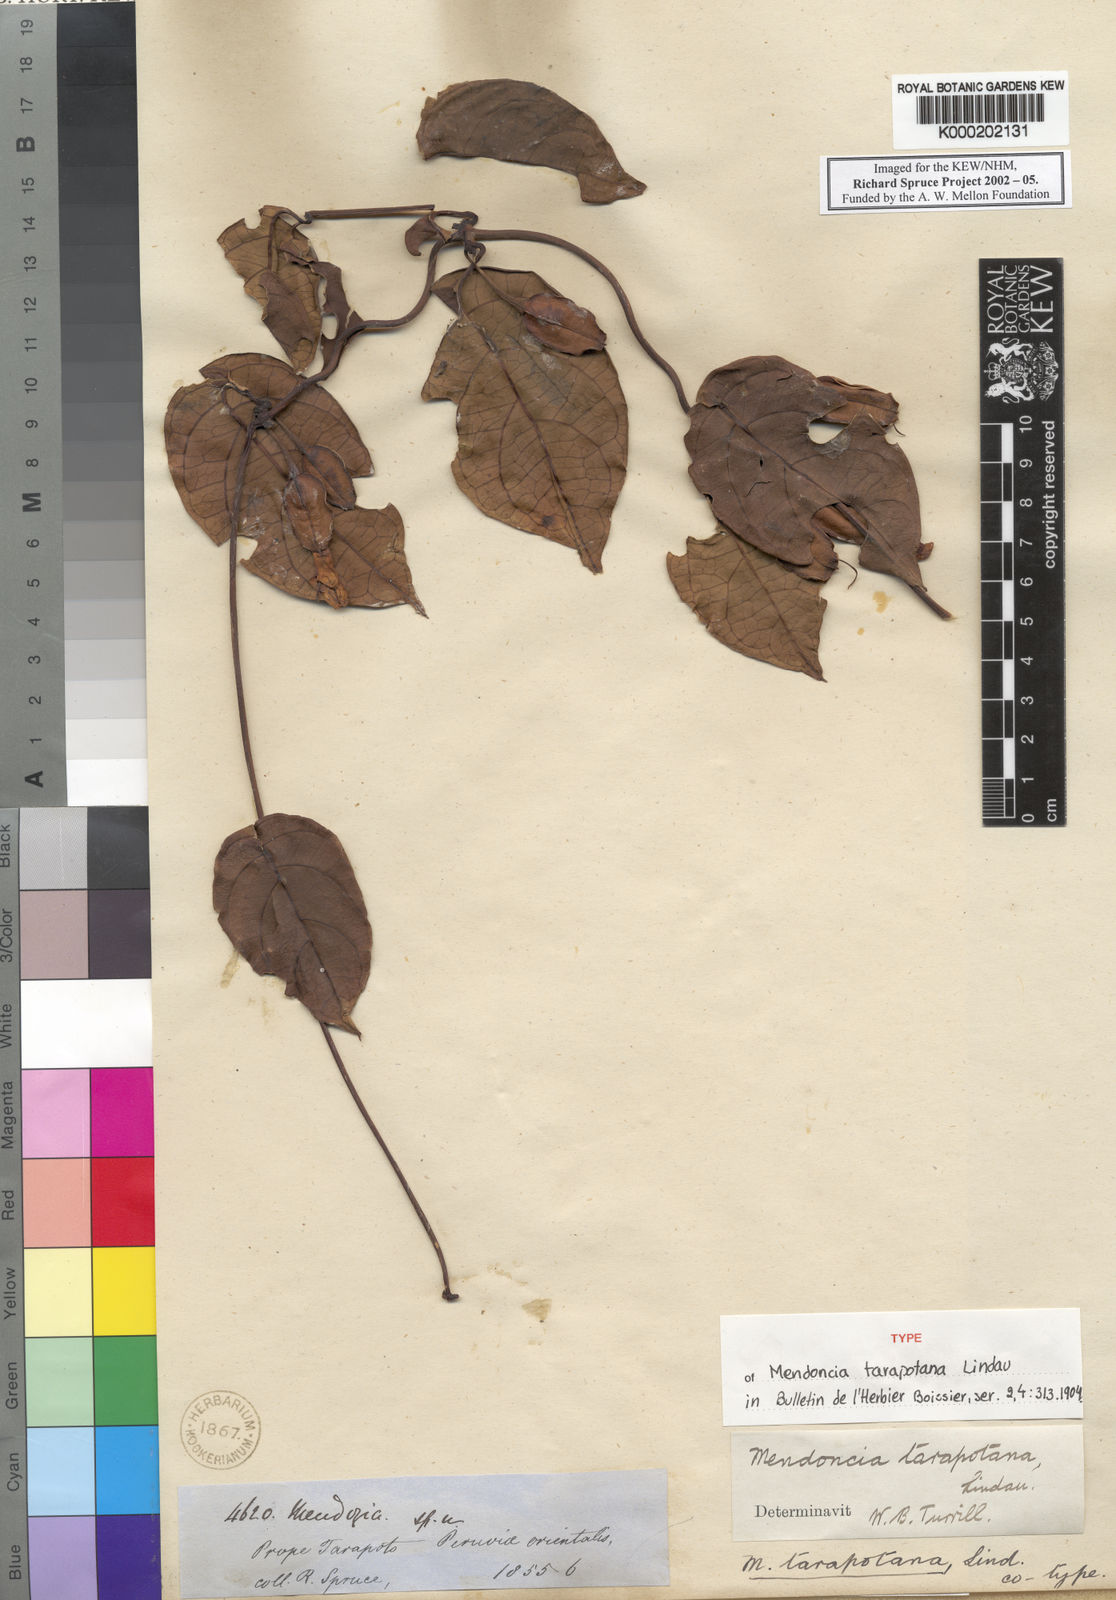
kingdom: Plantae
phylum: Tracheophyta
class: Magnoliopsida
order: Lamiales
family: Acanthaceae
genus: Mendoncia
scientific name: Mendoncia tarapotana
